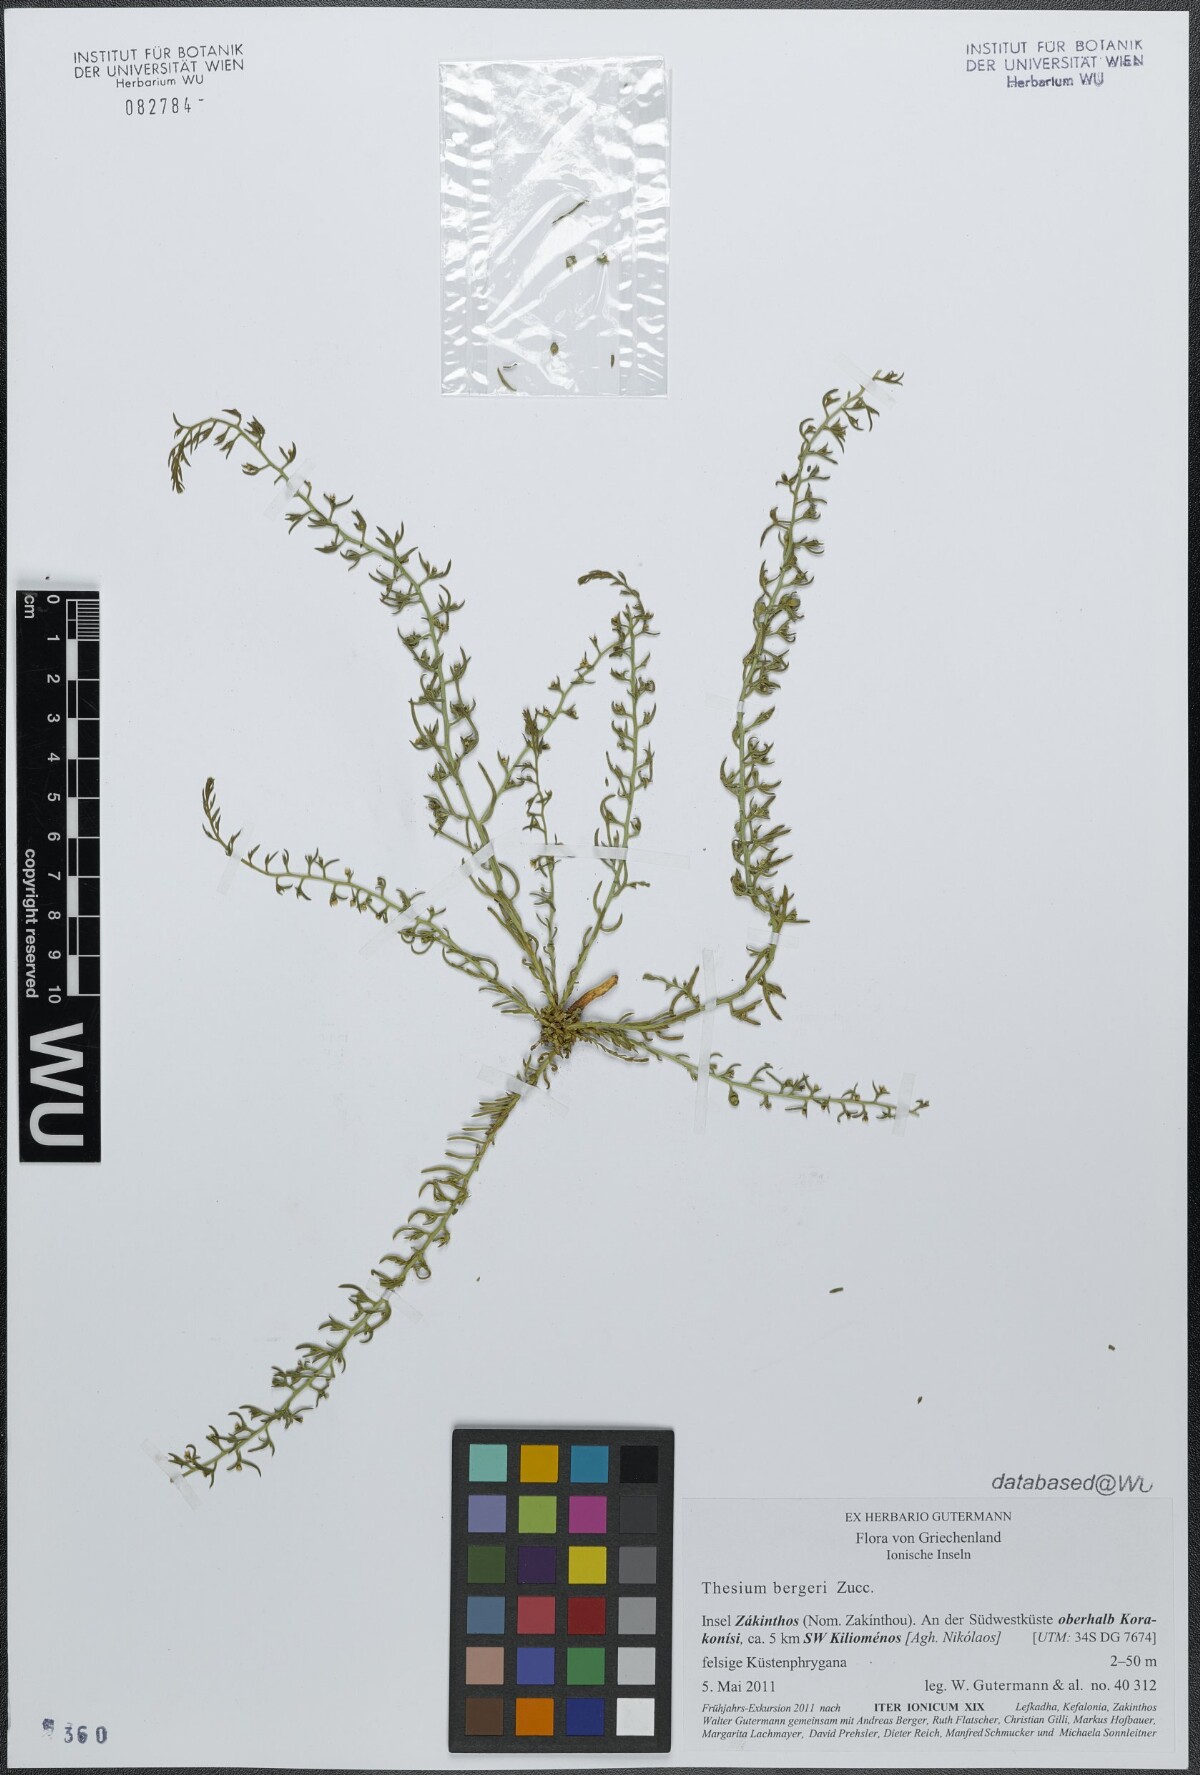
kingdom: Plantae
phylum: Tracheophyta
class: Magnoliopsida
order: Santalales
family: Thesiaceae
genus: Thesium
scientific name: Thesium bergeri
